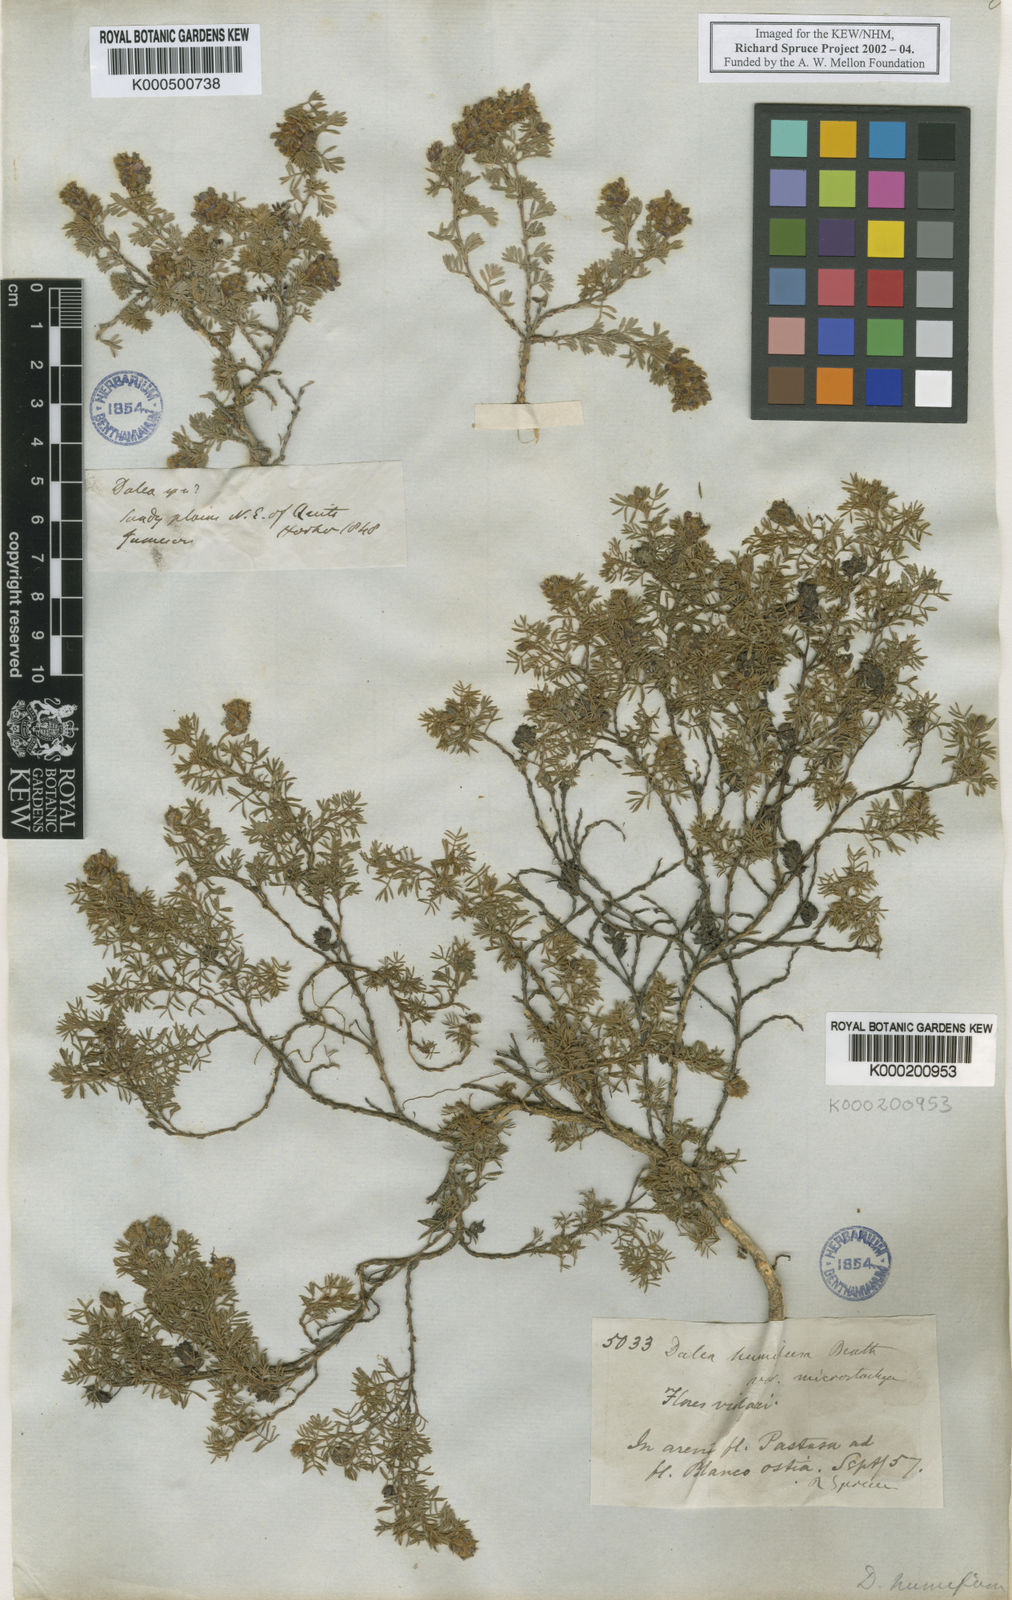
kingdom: Plantae
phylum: Tracheophyta
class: Magnoliopsida
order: Fabales
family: Fabaceae
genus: Dalea
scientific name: Dalea
